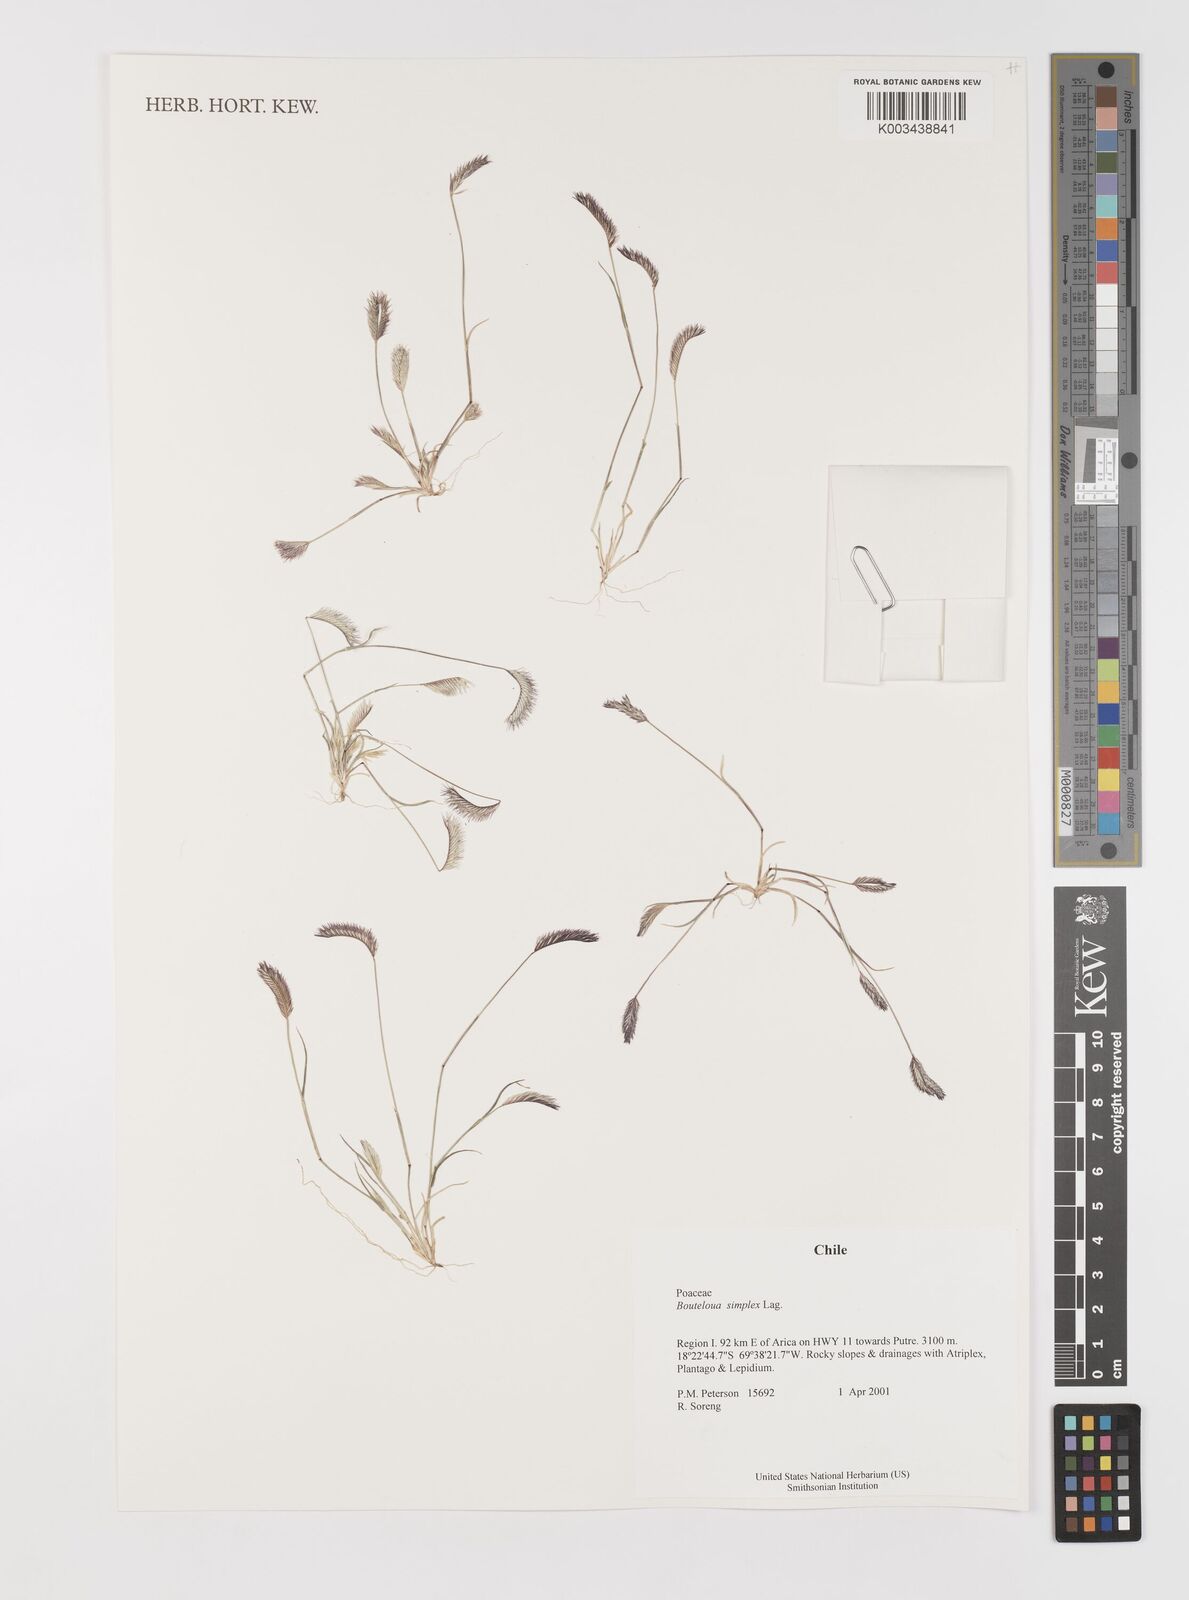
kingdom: Plantae
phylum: Tracheophyta
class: Liliopsida
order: Poales
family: Poaceae
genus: Bouteloua
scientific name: Bouteloua simplex
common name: Mat grama
